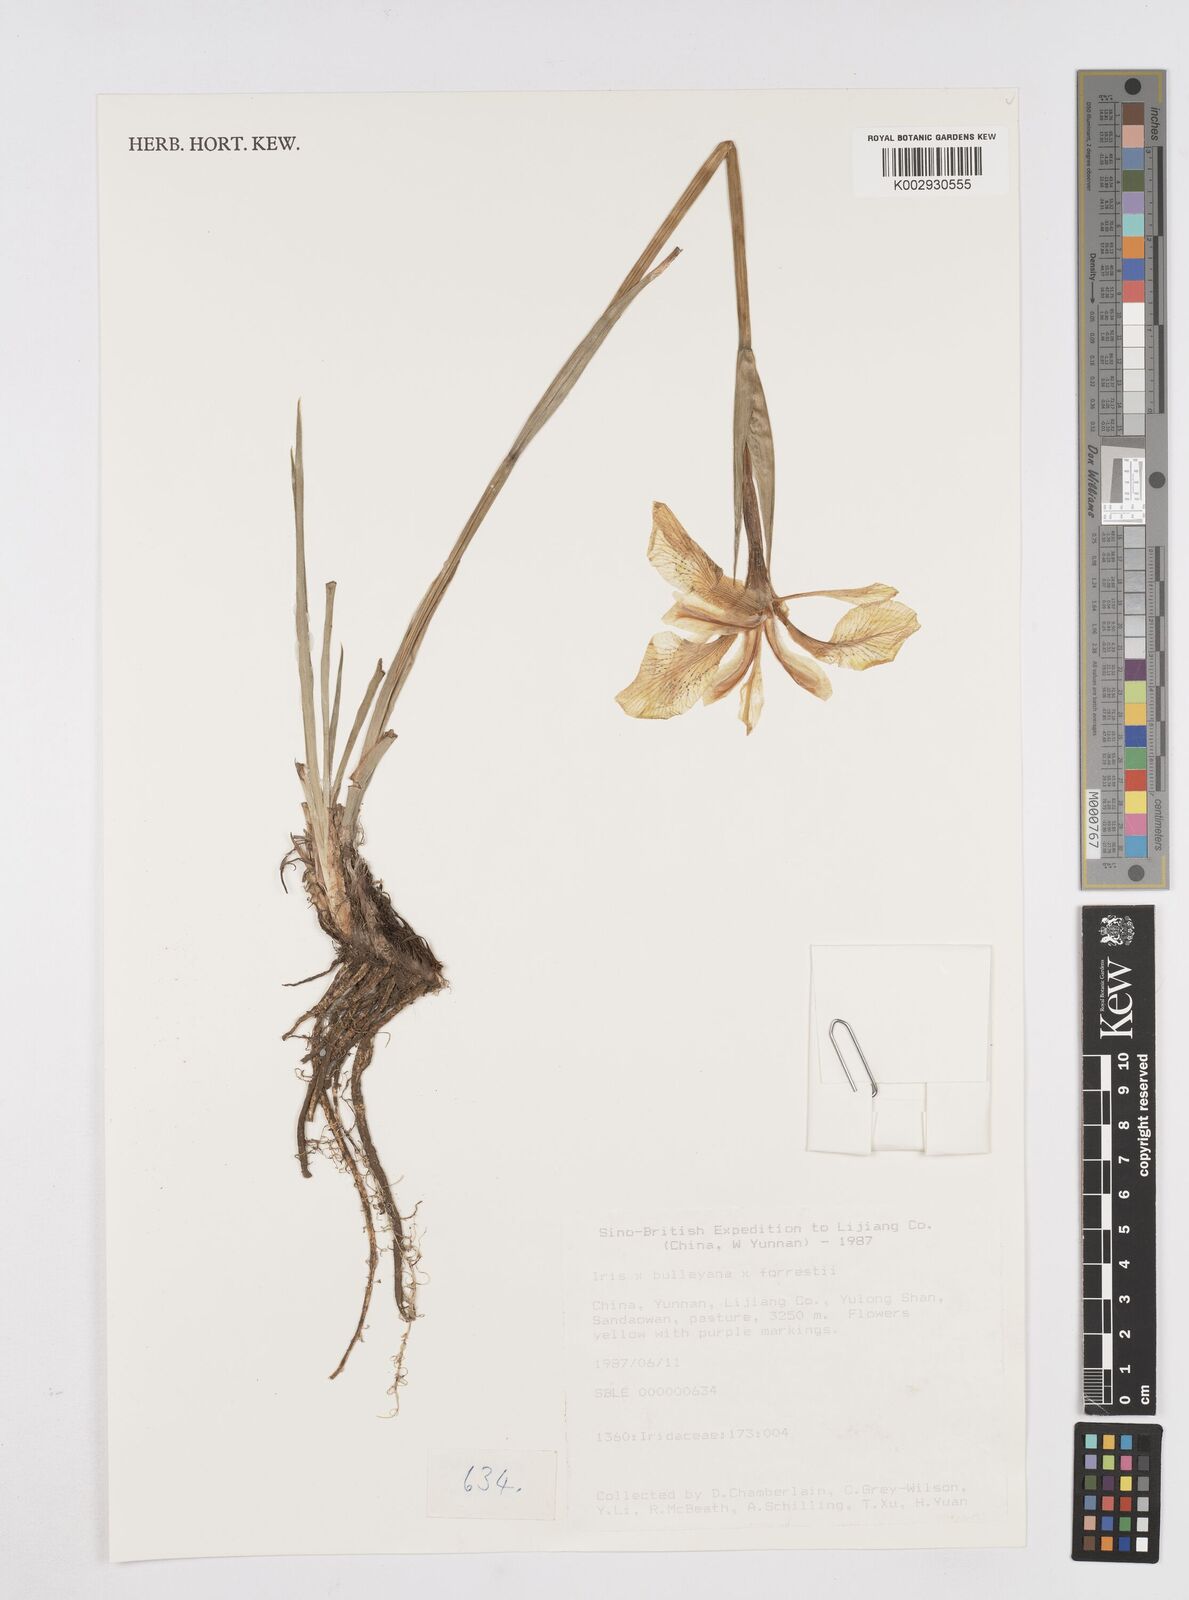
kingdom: Plantae
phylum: Tracheophyta
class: Liliopsida
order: Asparagales
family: Iridaceae
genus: Iris
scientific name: Iris bulleyana
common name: Southwest iris
